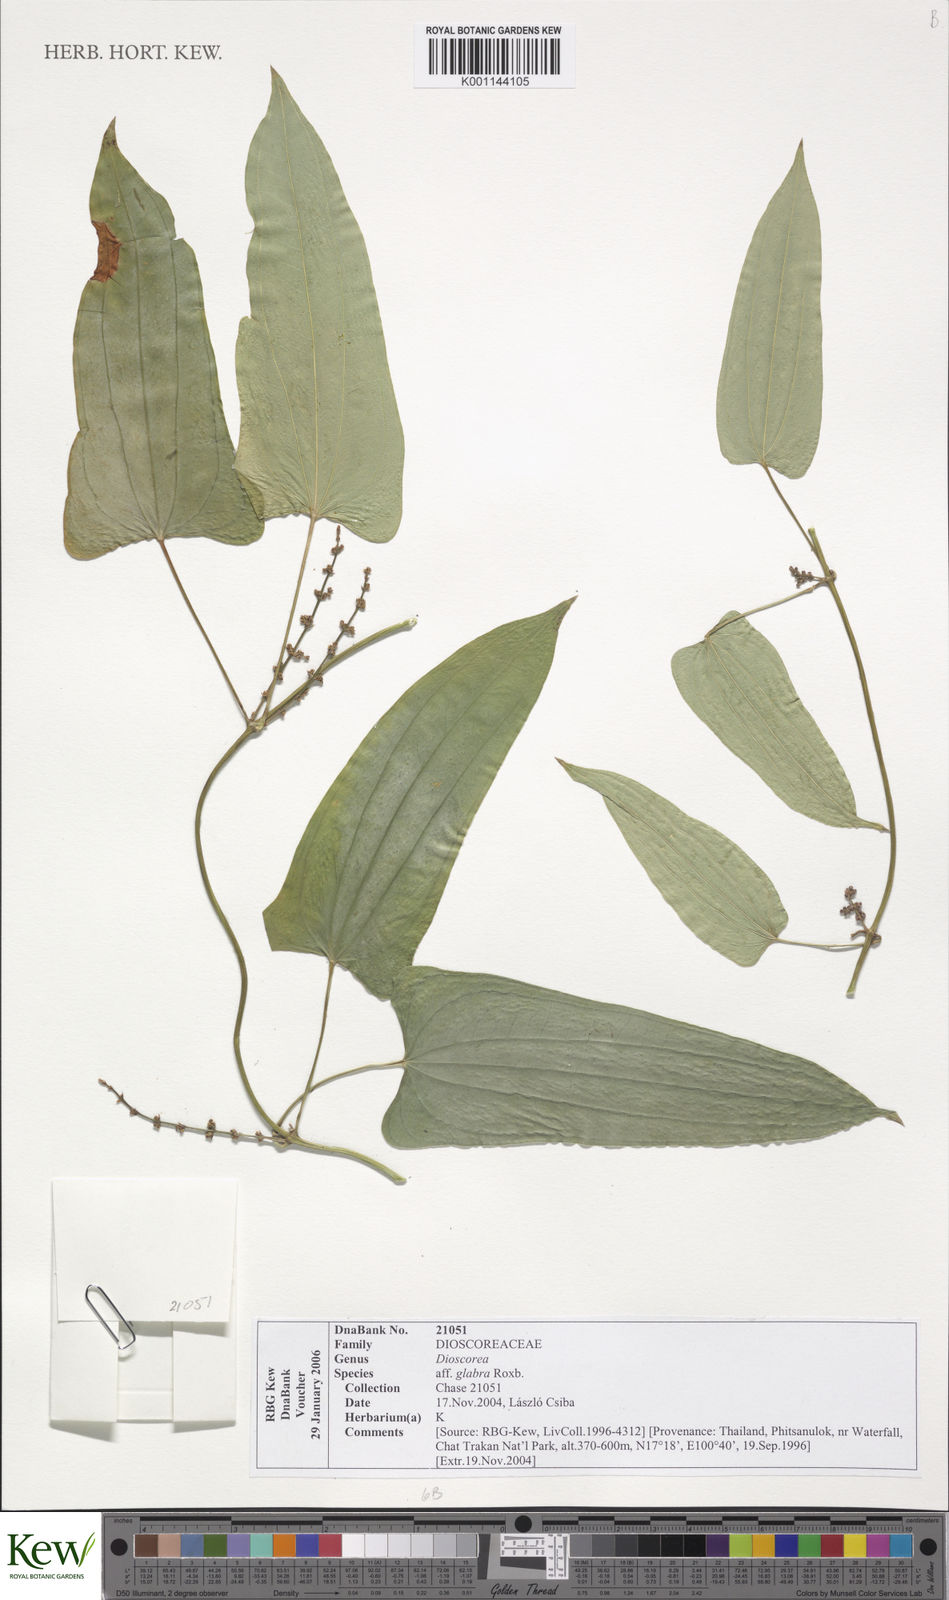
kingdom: Plantae
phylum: Tracheophyta
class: Liliopsida
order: Dioscoreales
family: Dioscoreaceae
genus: Dioscorea
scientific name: Dioscorea glabra
